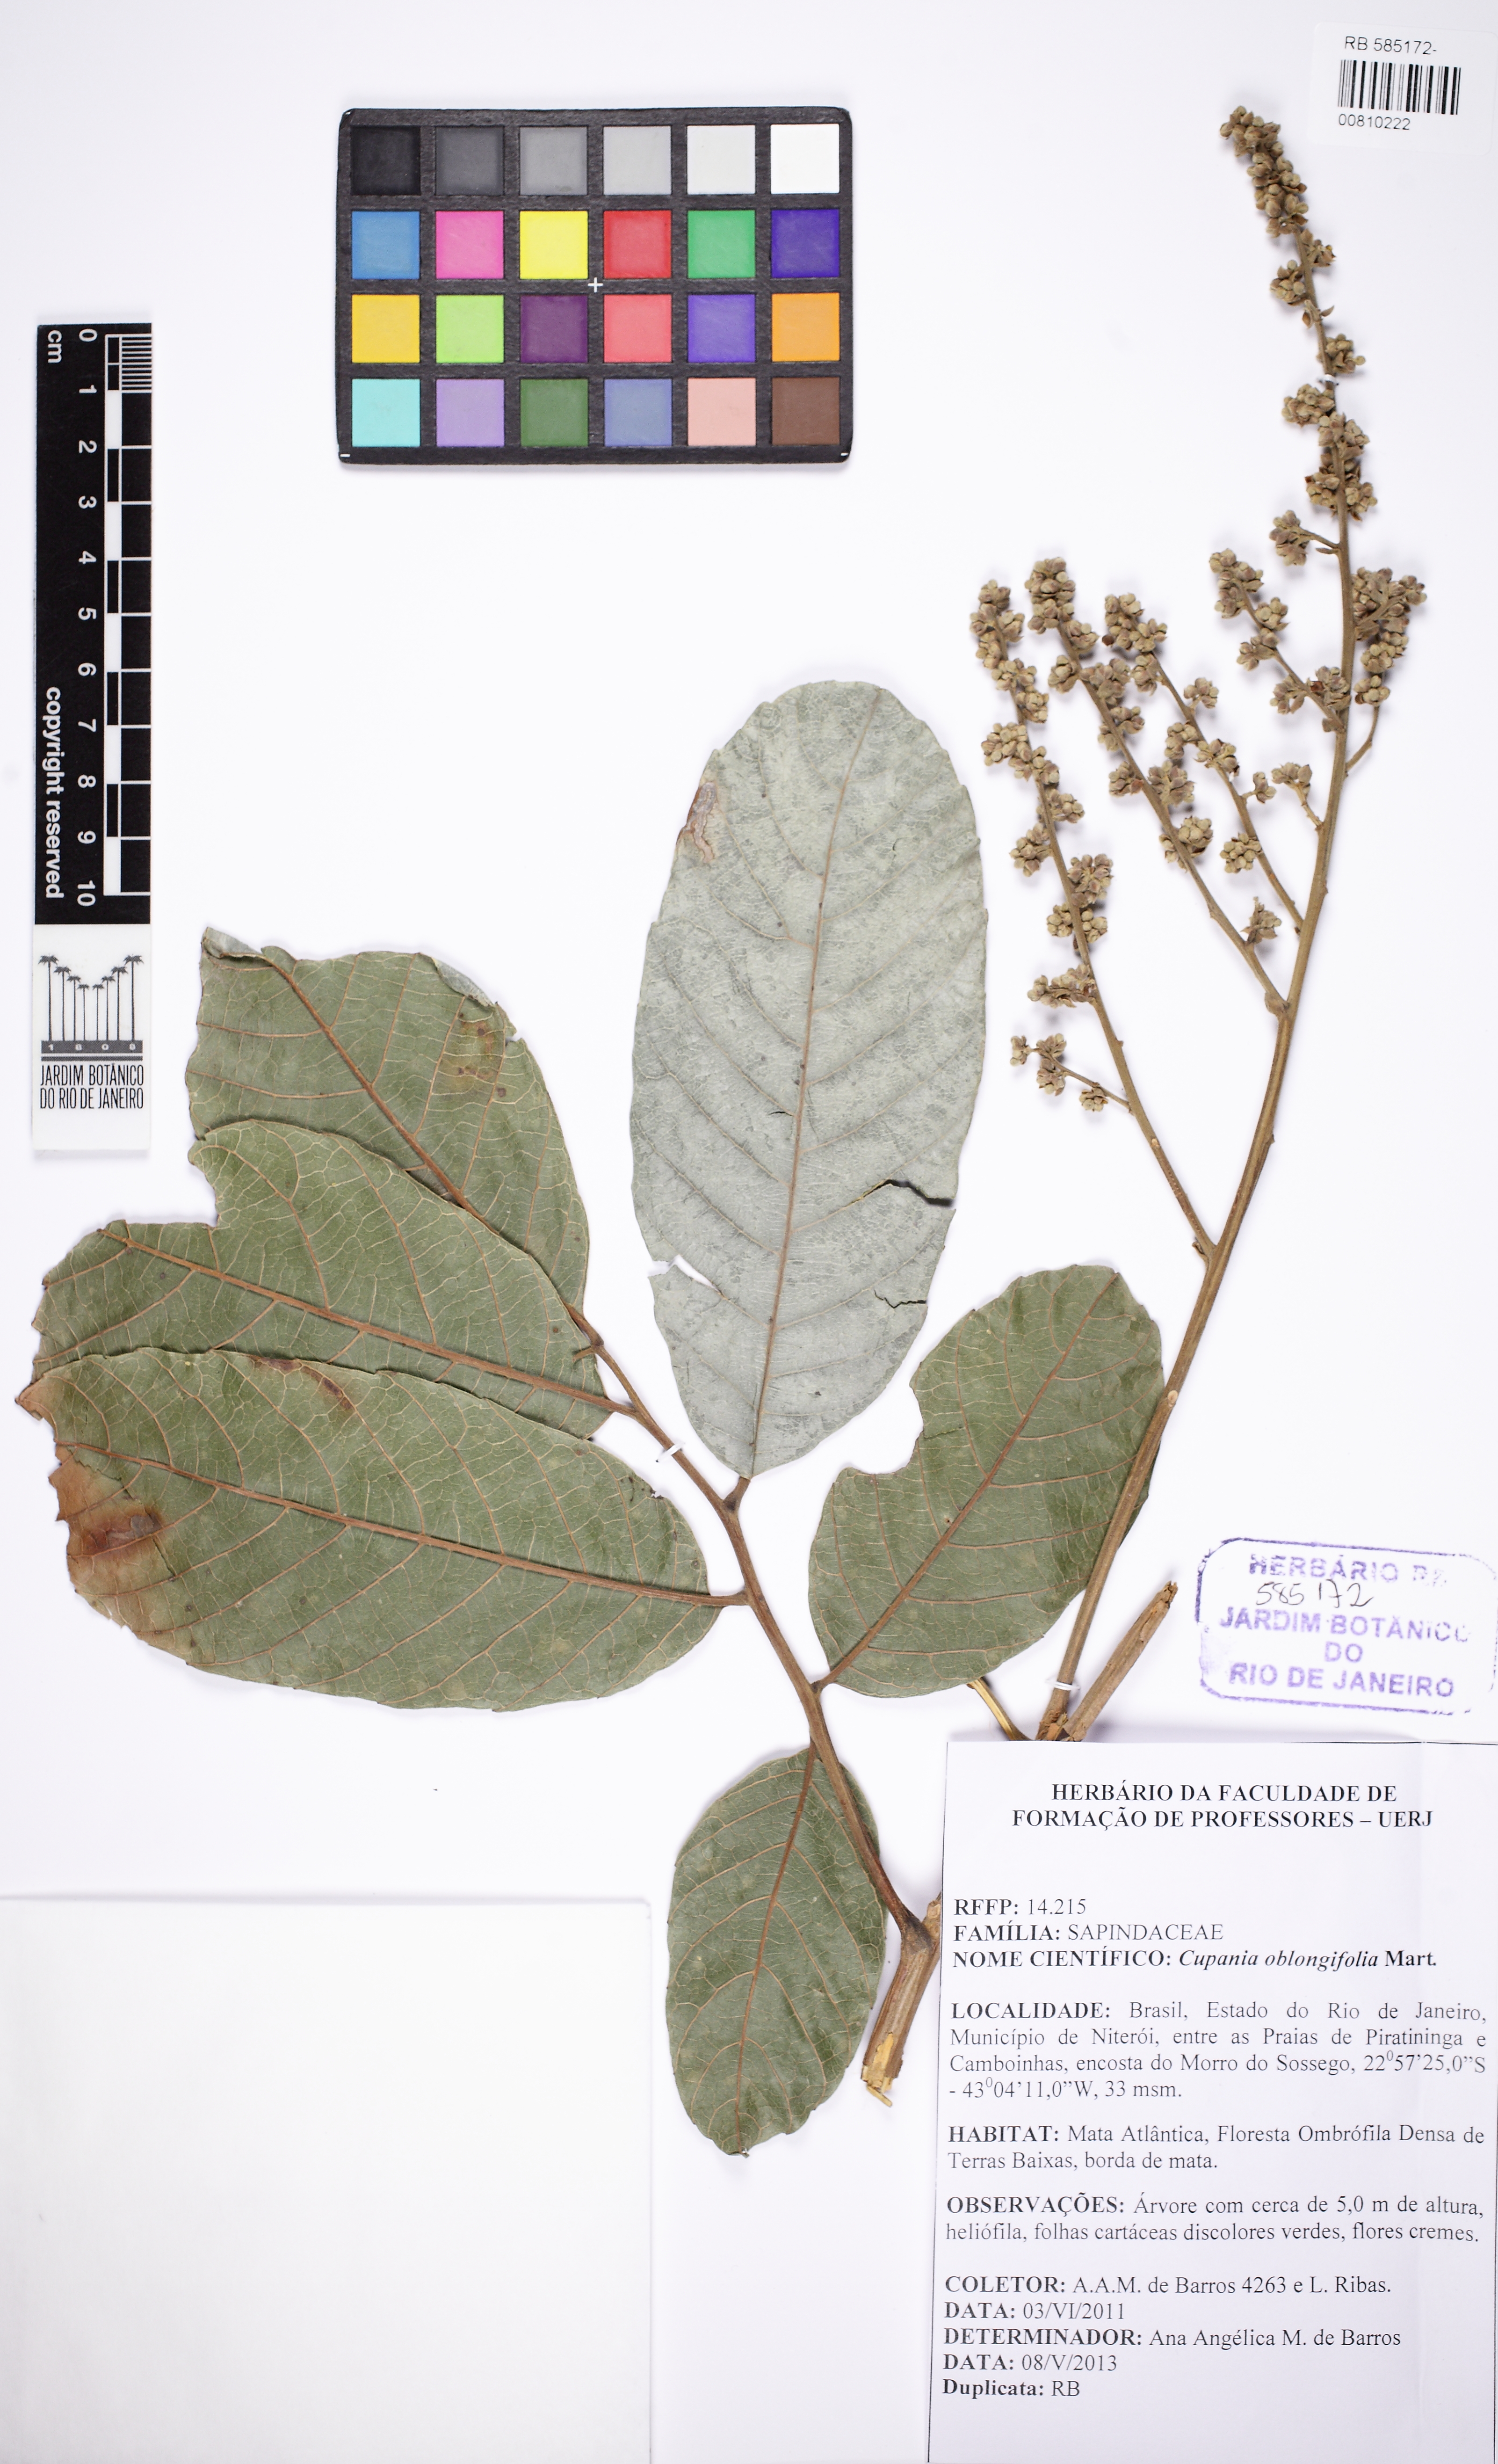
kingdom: Plantae
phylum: Tracheophyta
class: Magnoliopsida
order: Sapindales
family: Sapindaceae
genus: Cupania
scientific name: Cupania oblongifolia
